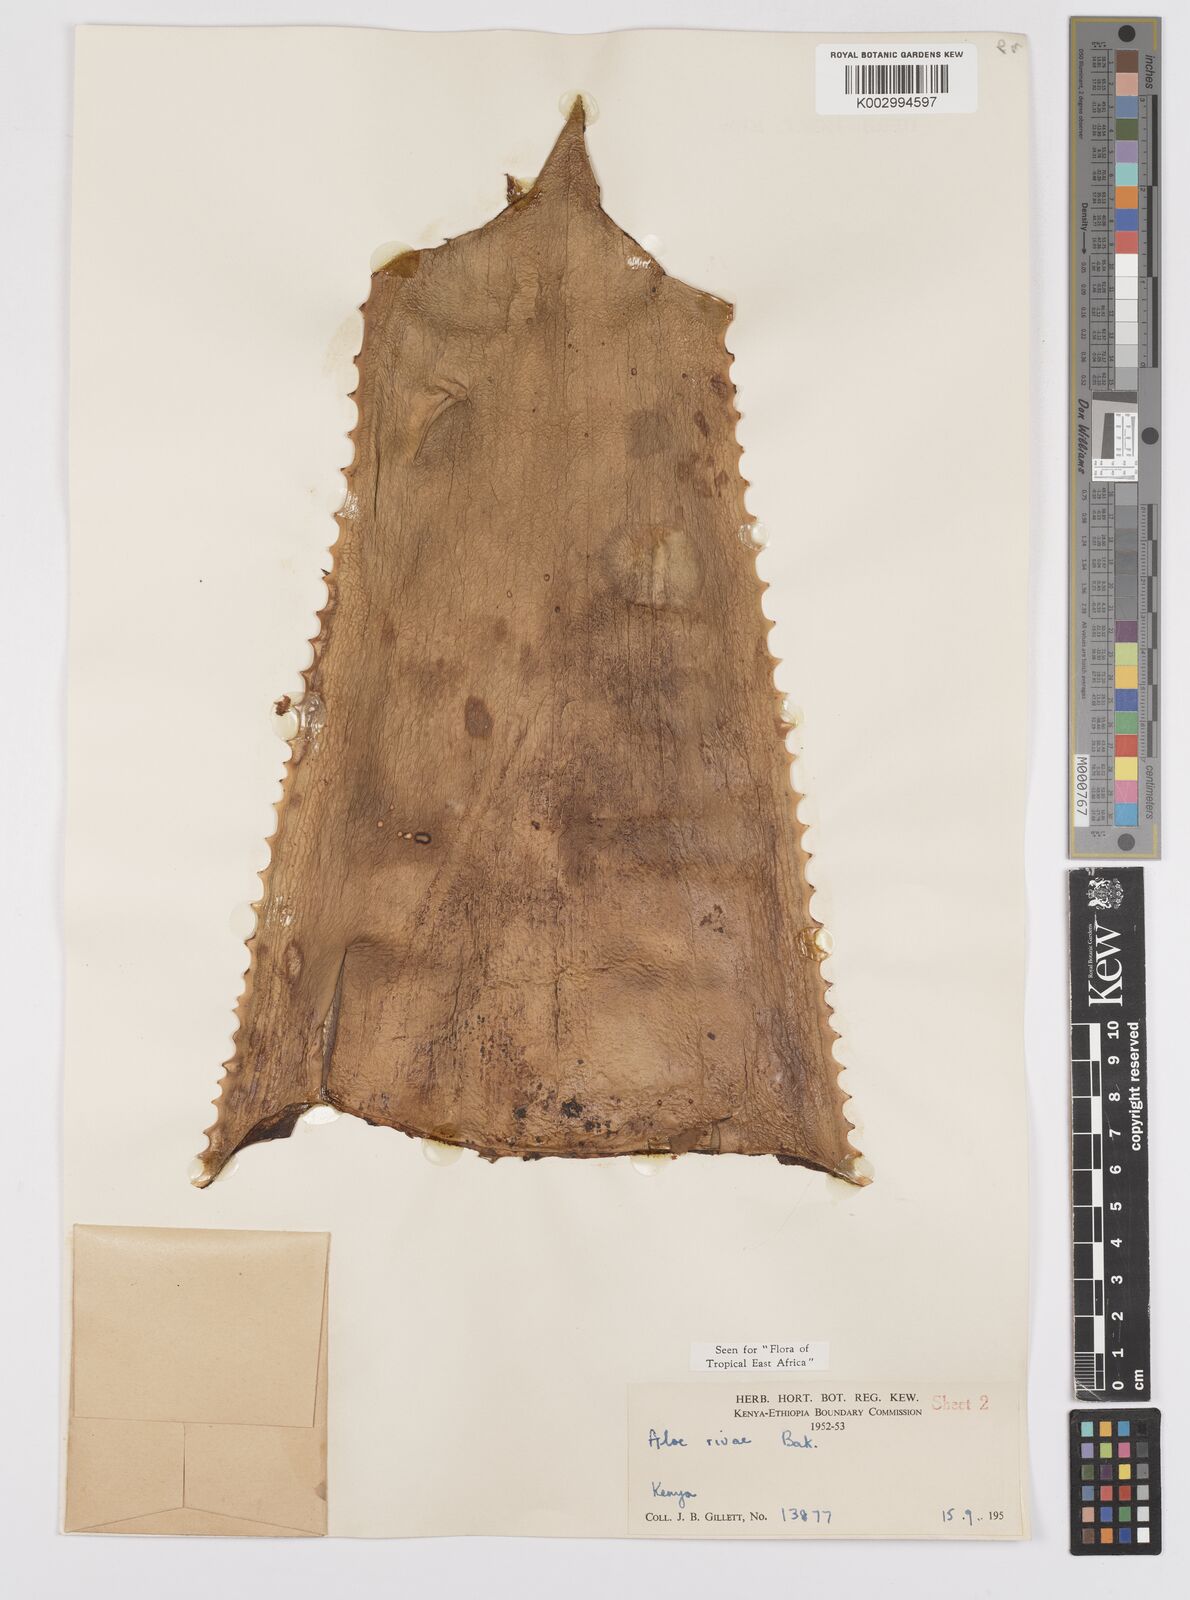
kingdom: Plantae
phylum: Tracheophyta
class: Liliopsida
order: Asparagales
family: Asphodelaceae
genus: Aloe
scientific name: Aloe rivae
